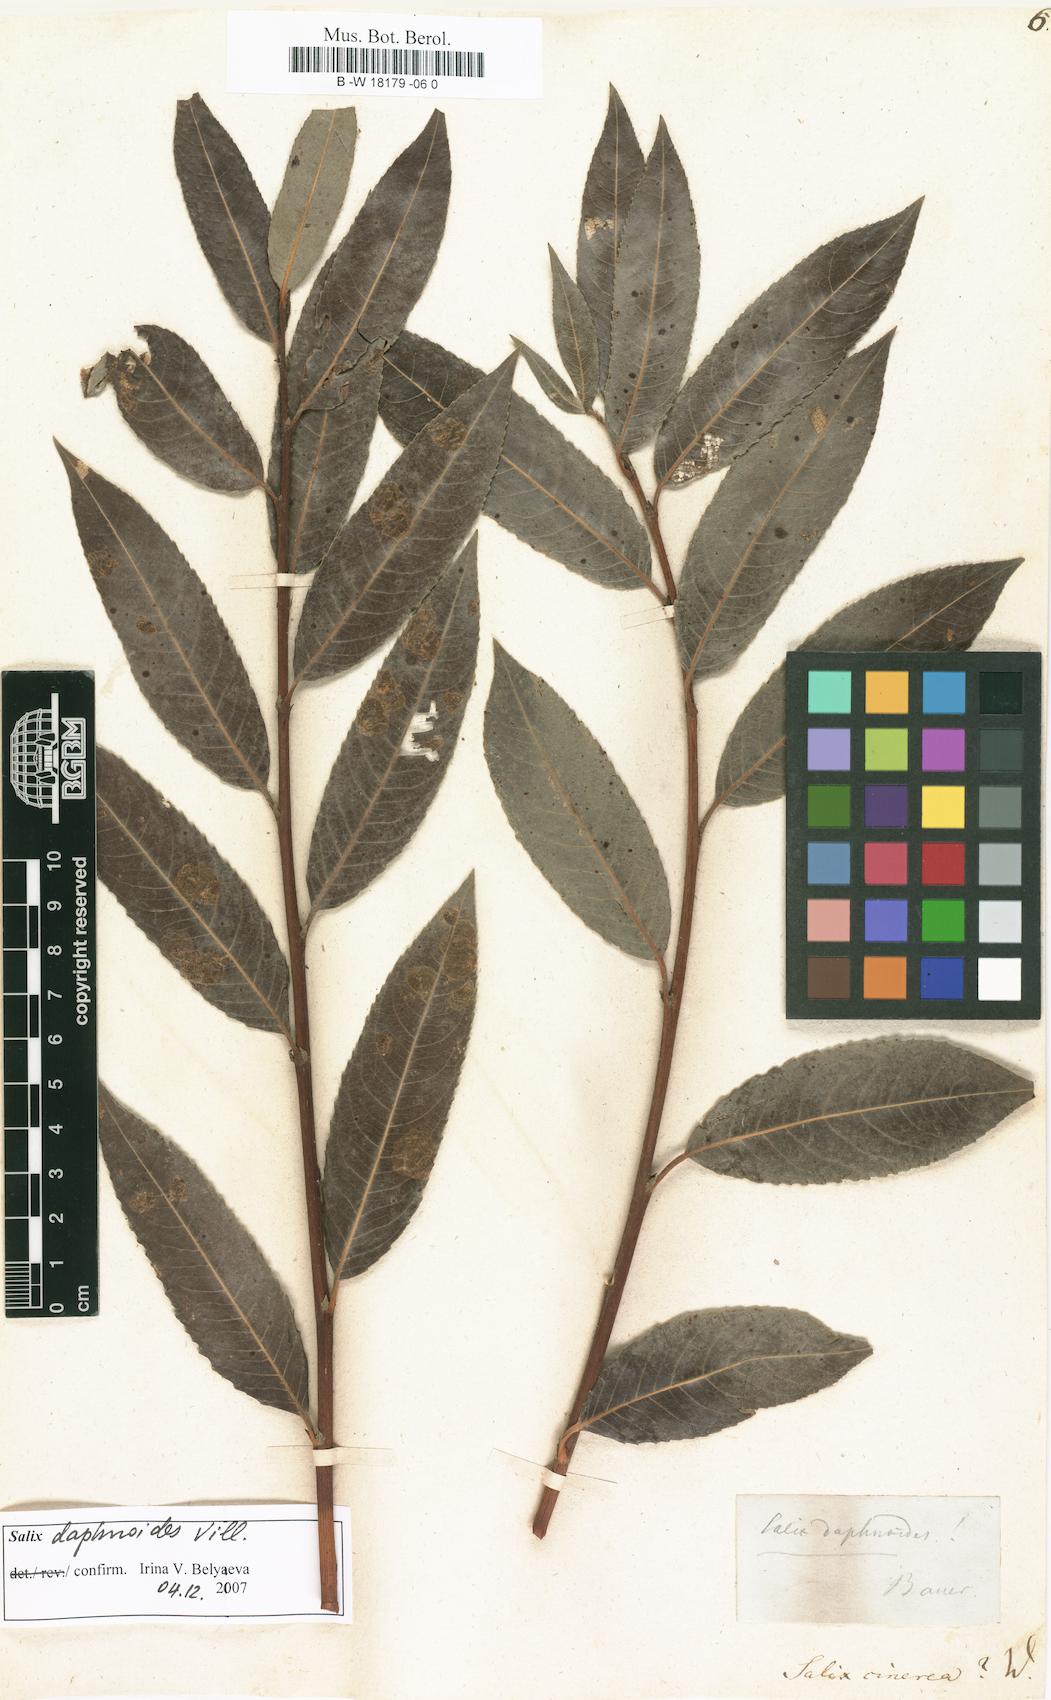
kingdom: Plantae
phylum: Tracheophyta
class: Magnoliopsida
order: Malpighiales
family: Salicaceae
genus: Salix
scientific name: Salix cinerea
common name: Common sallow
